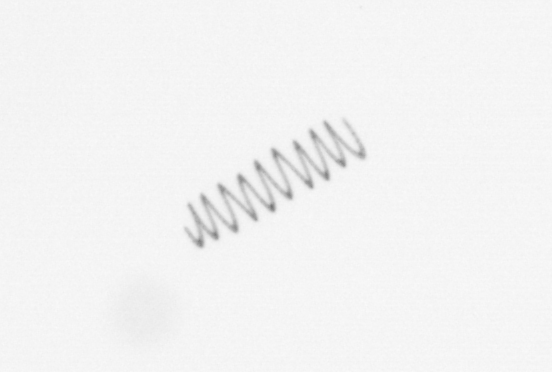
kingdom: Chromista
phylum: Ochrophyta
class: Bacillariophyceae
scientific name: Bacillariophyceae
